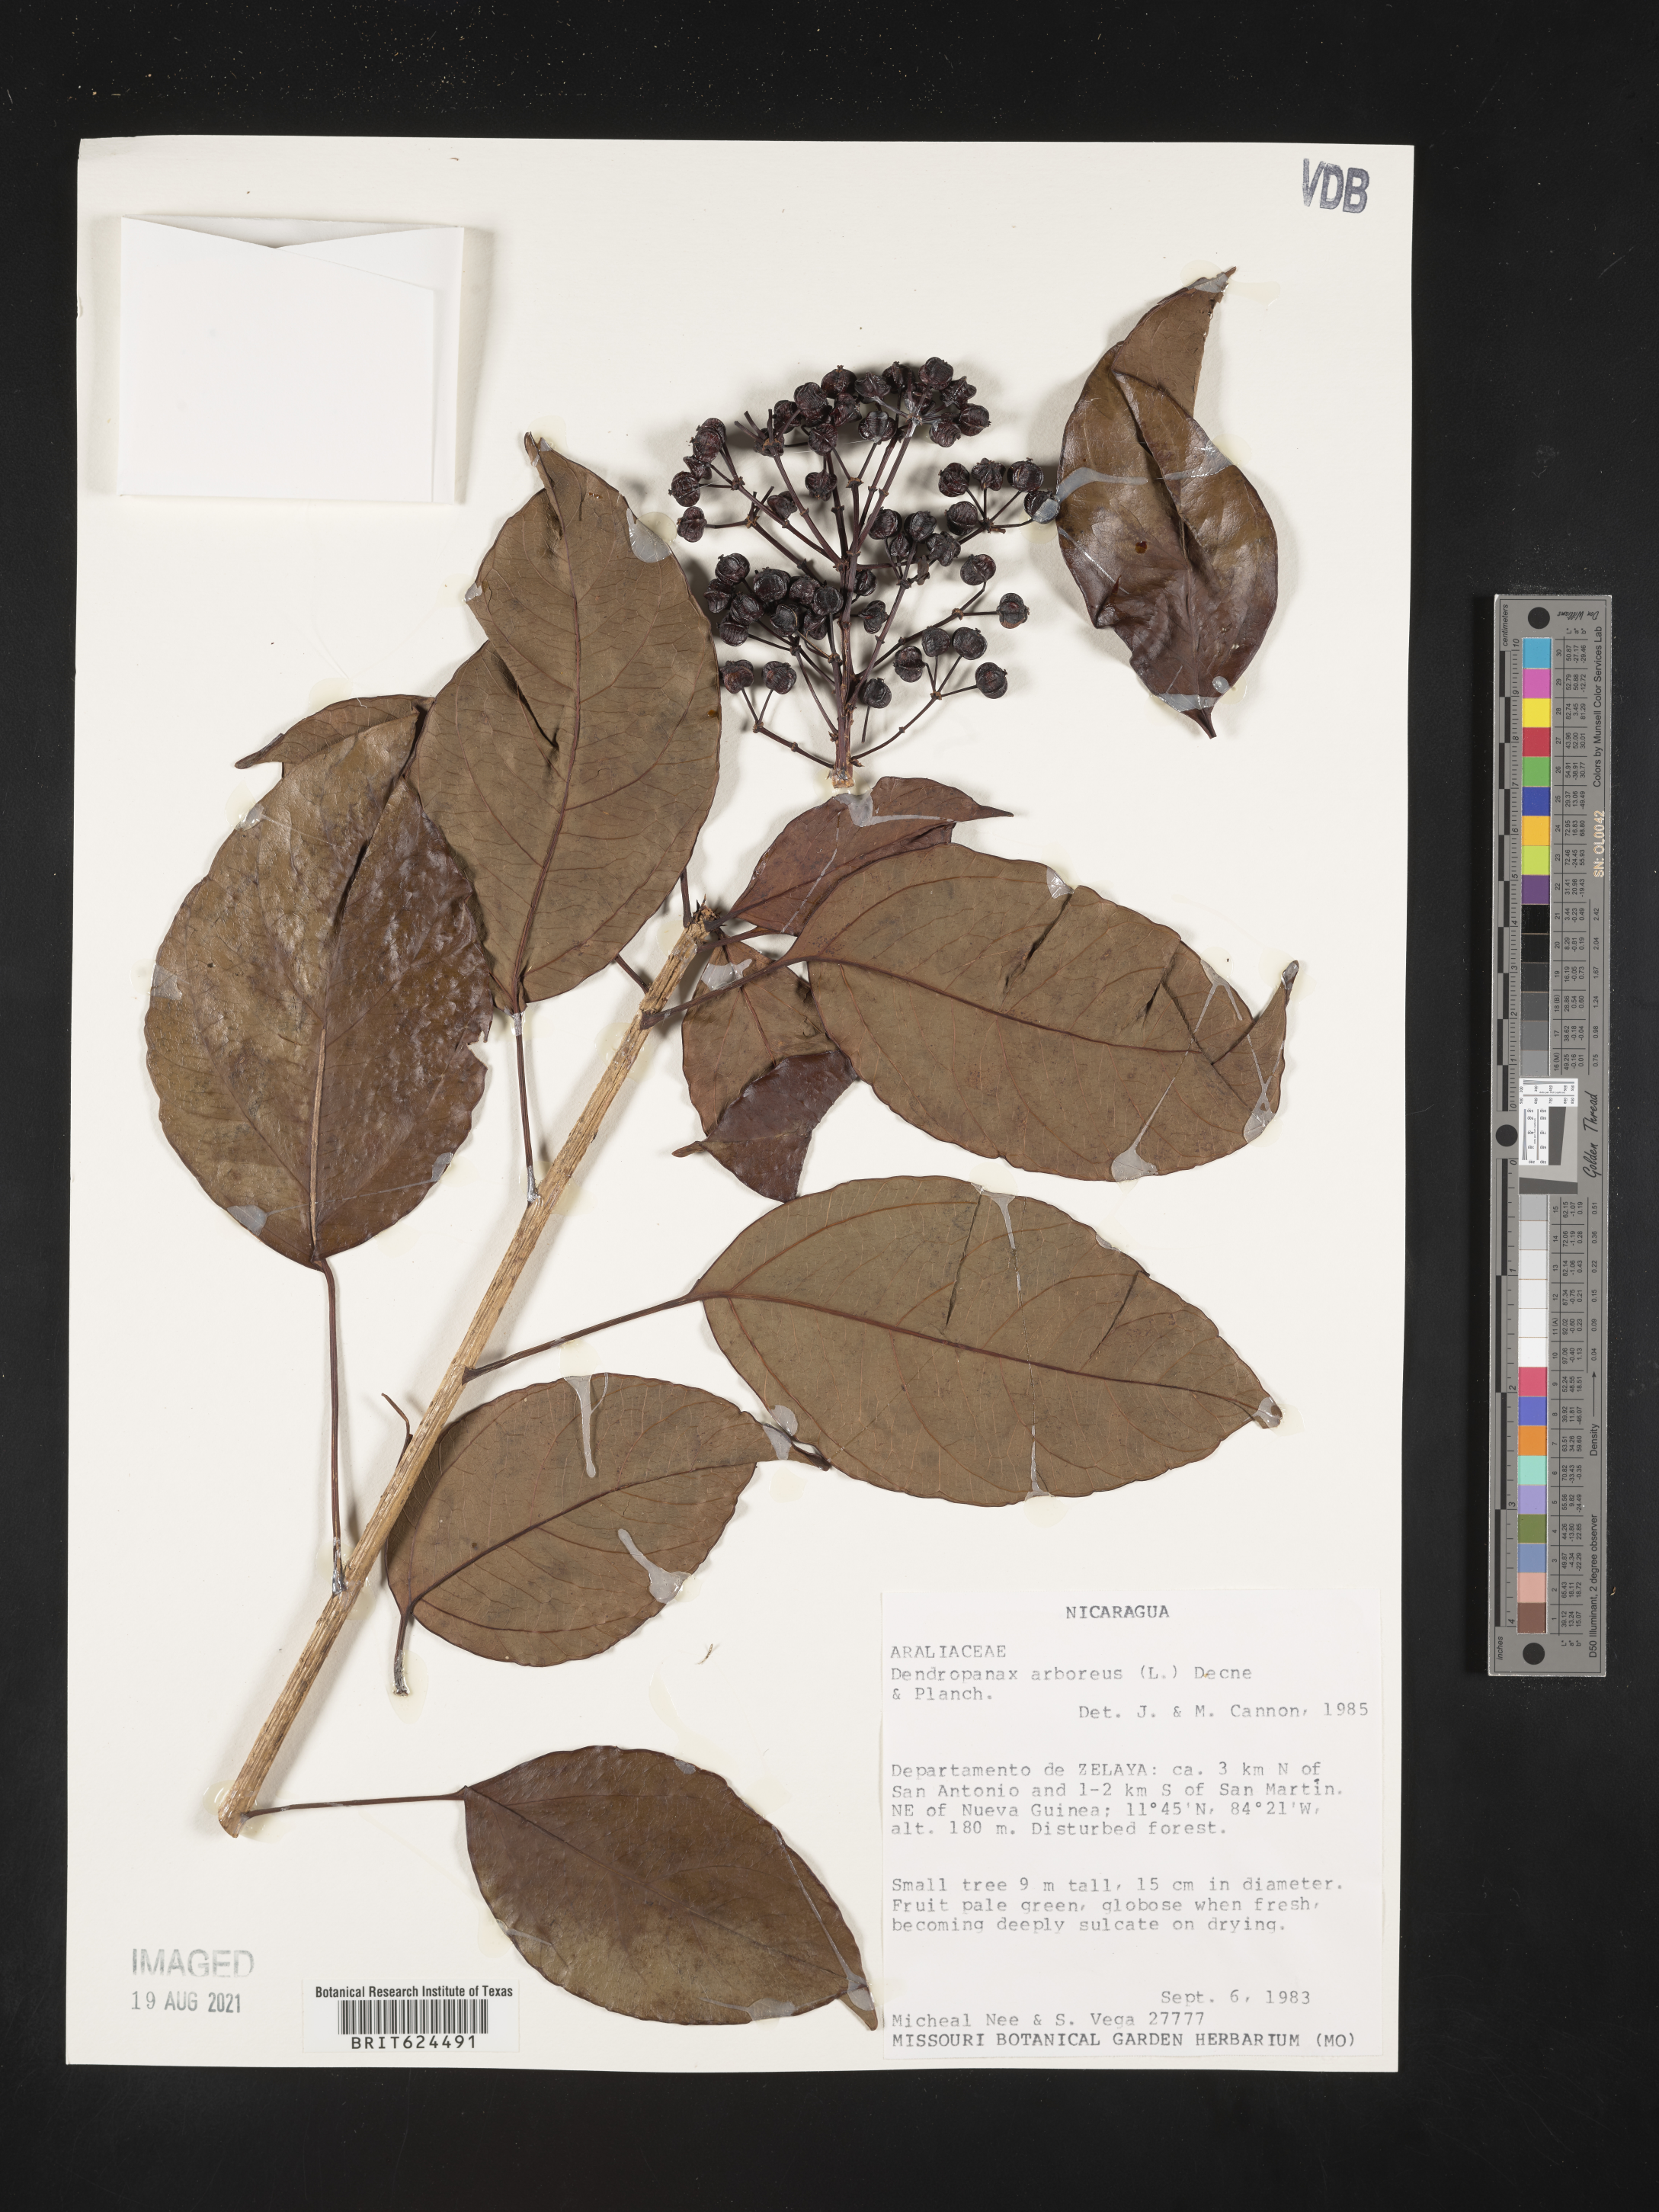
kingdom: Plantae
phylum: Tracheophyta
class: Magnoliopsida
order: Apiales
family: Araliaceae
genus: Dendropanax
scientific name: Dendropanax arboreus
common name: Potato-wood
